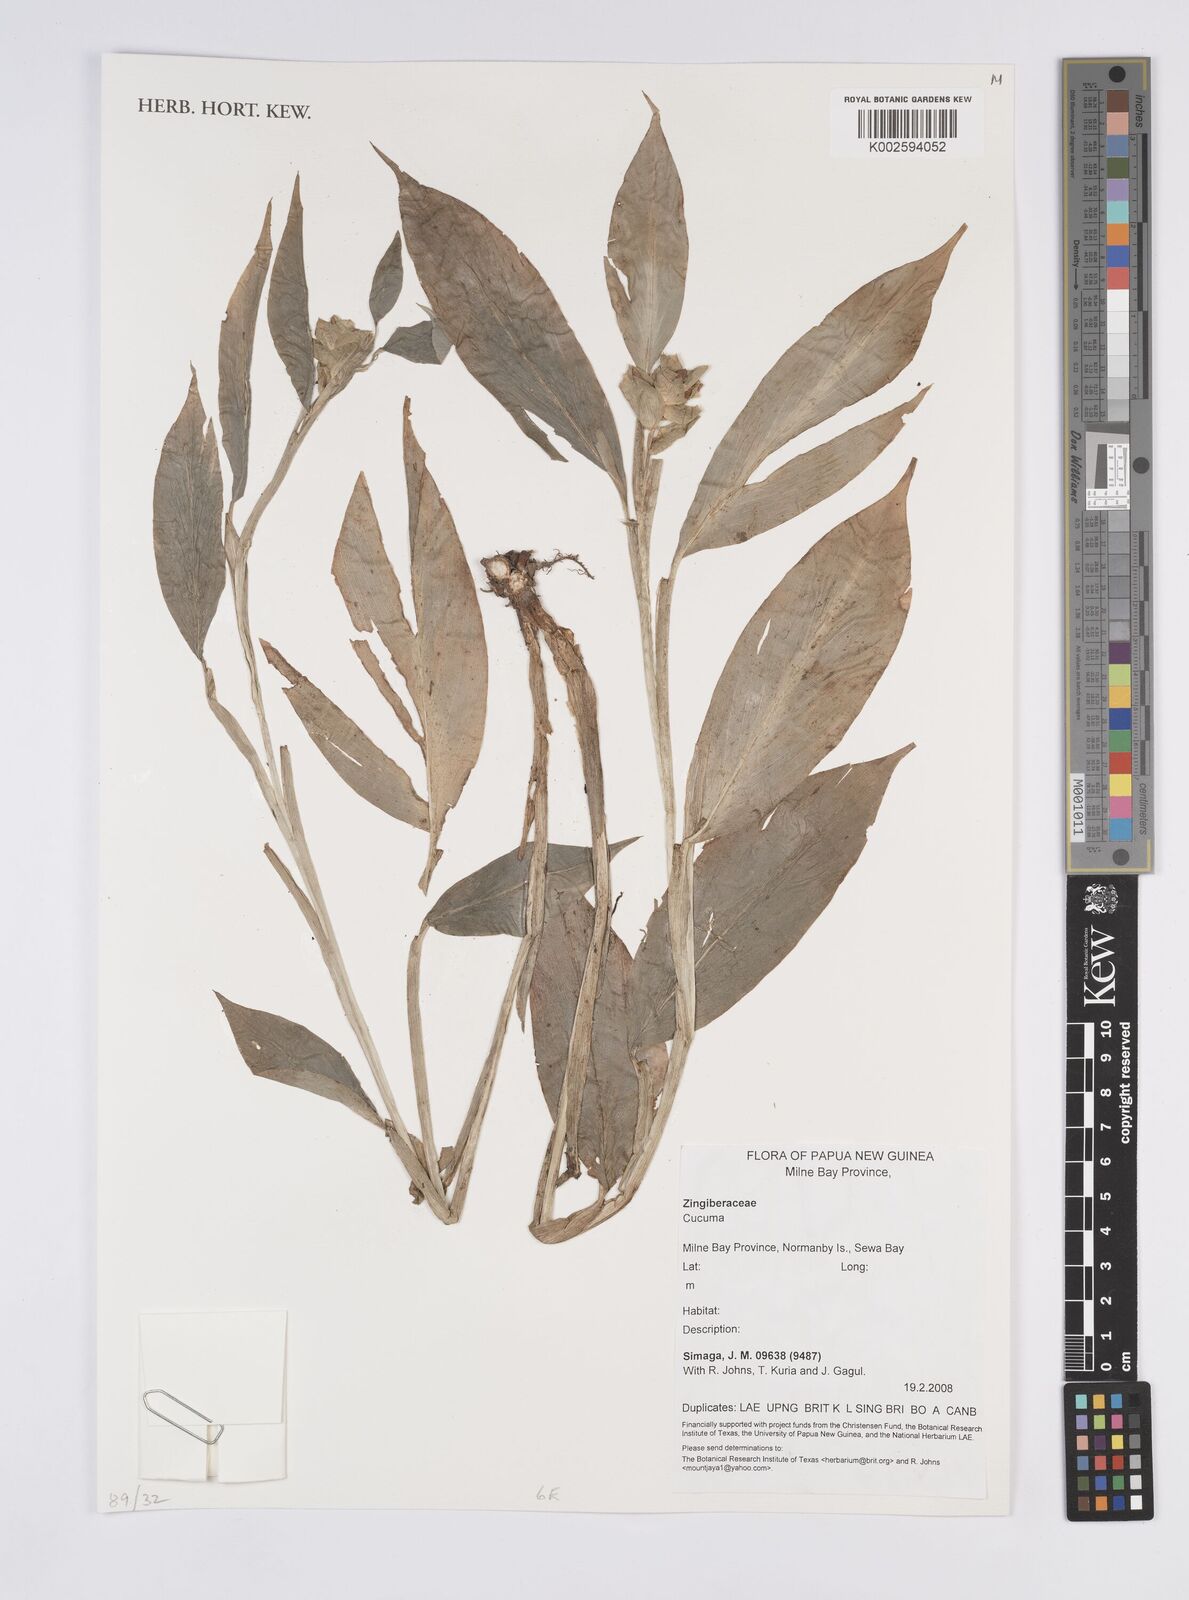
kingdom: Plantae
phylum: Tracheophyta
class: Liliopsida
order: Zingiberales
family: Zingiberaceae
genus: Curcuma
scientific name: Curcuma
